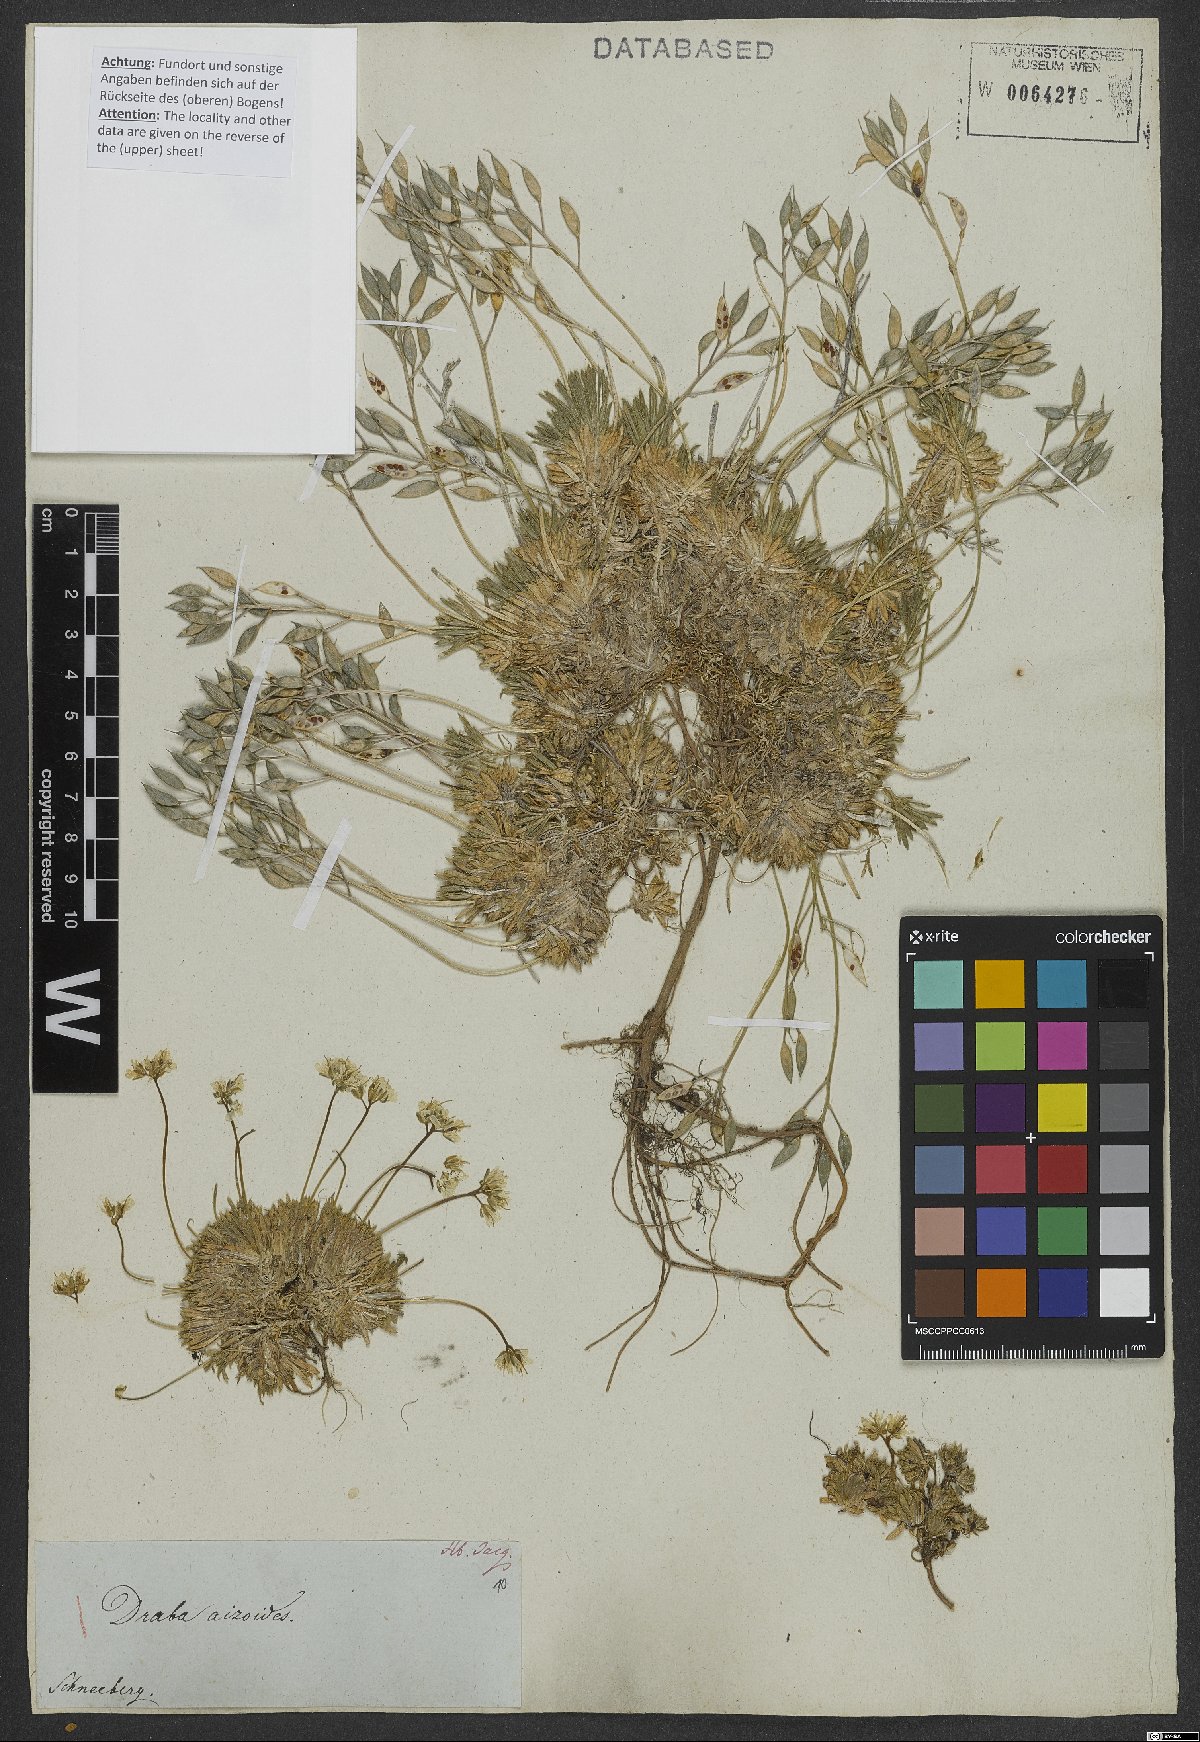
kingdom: Plantae
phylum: Tracheophyta
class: Magnoliopsida
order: Brassicales
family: Brassicaceae
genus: Draba
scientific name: Draba aizoides
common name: Yellow whitlowgrass
